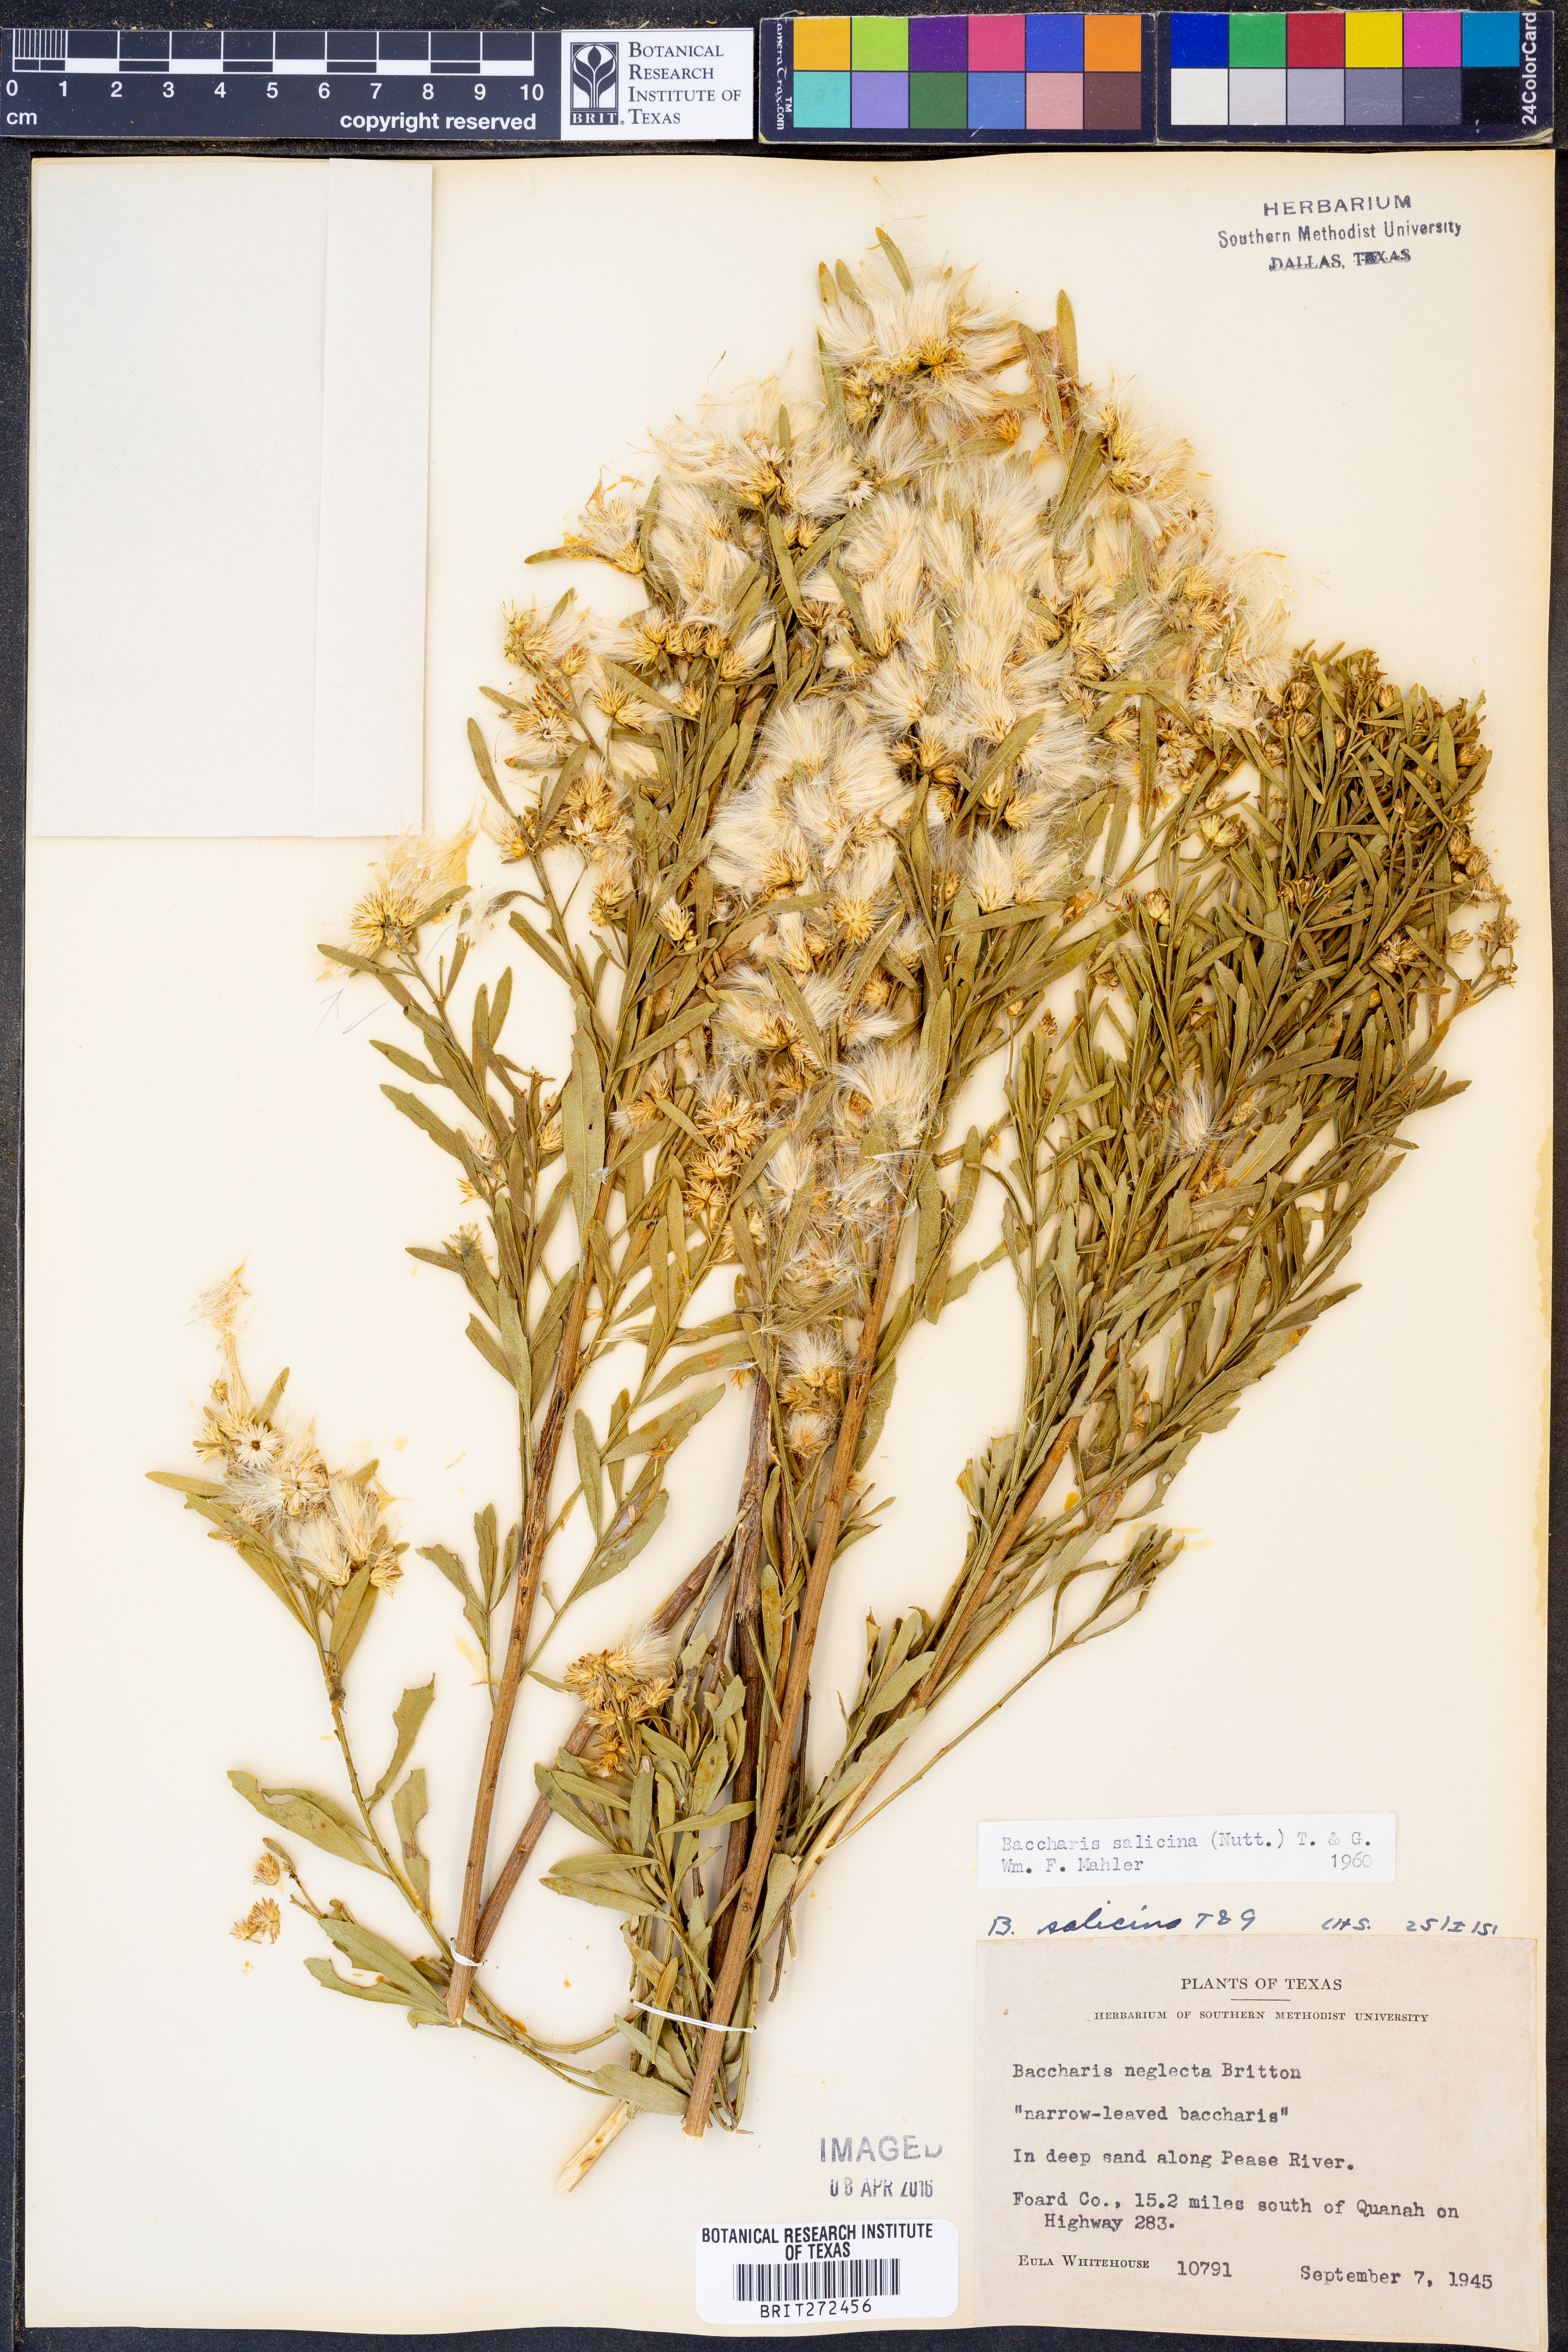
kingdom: Plantae
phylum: Tracheophyta
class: Magnoliopsida
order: Asterales
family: Asteraceae
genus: Baccharis
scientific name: Baccharis salicina
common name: Willow baccharis
